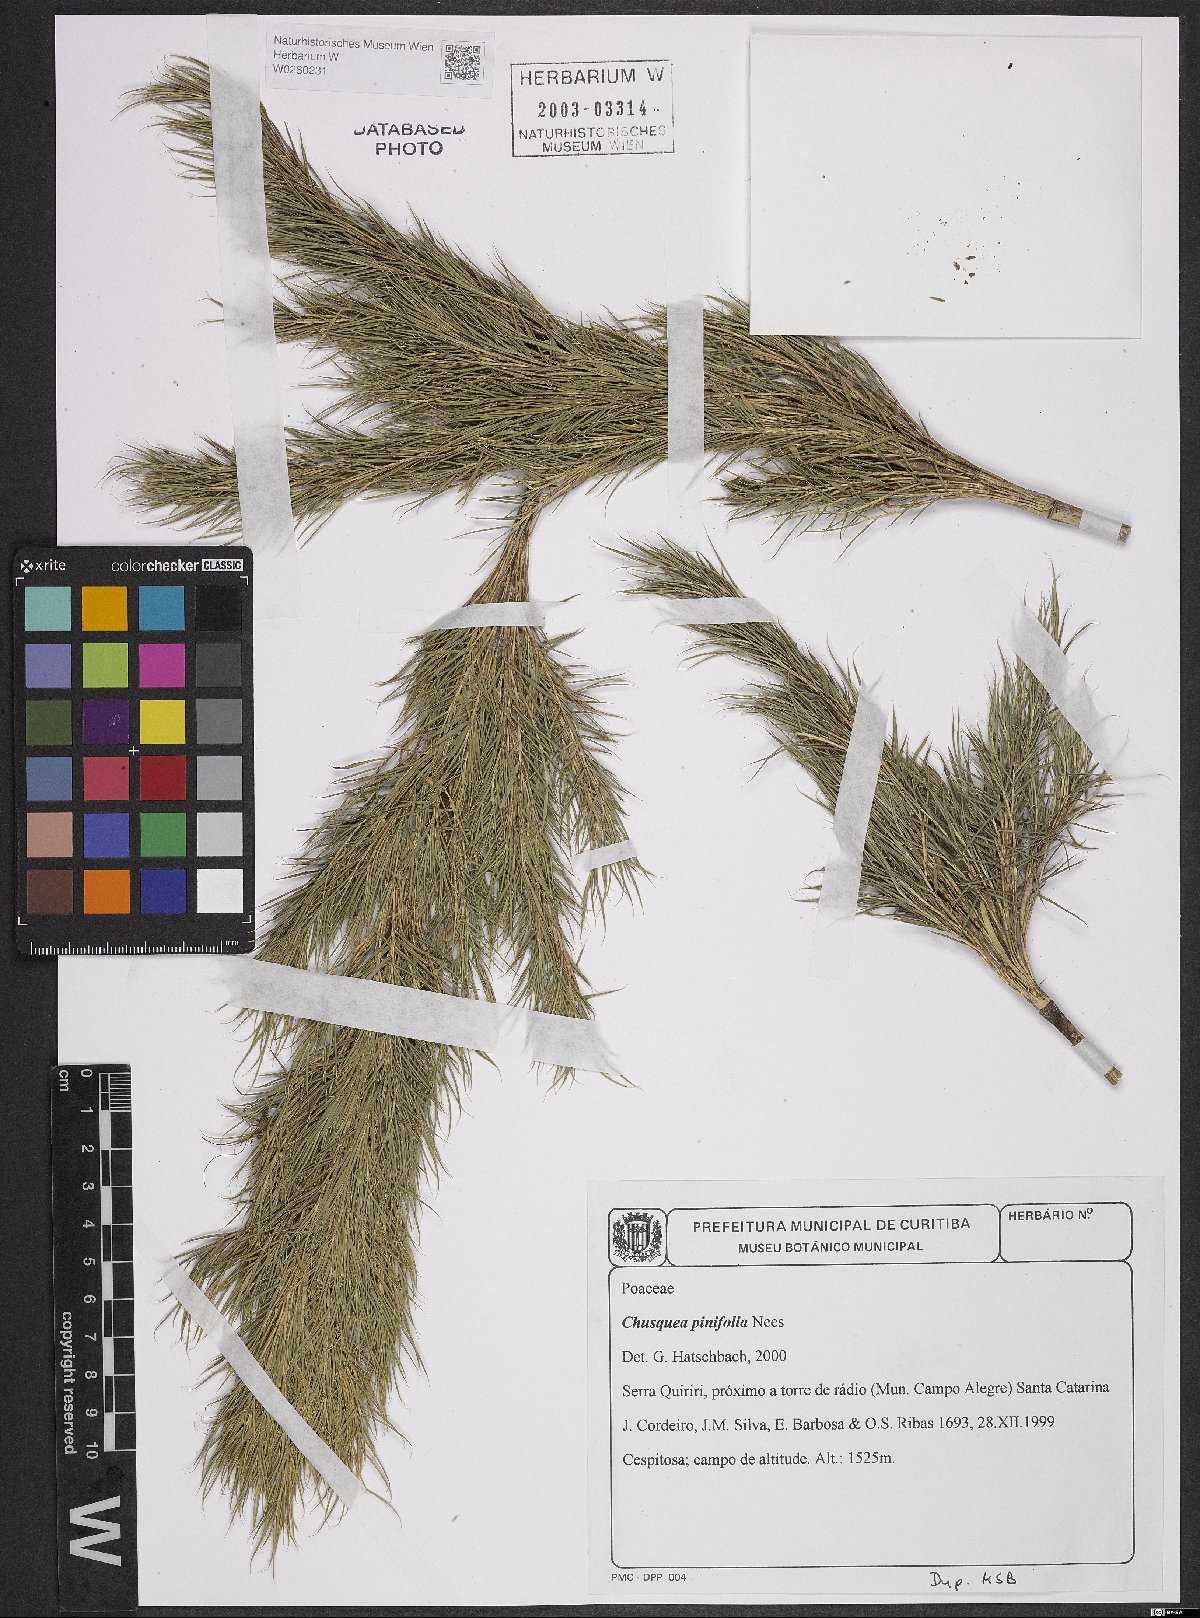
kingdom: Plantae
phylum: Tracheophyta
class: Liliopsida
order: Poales
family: Poaceae
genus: Chusquea
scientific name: Chusquea pinifolia
